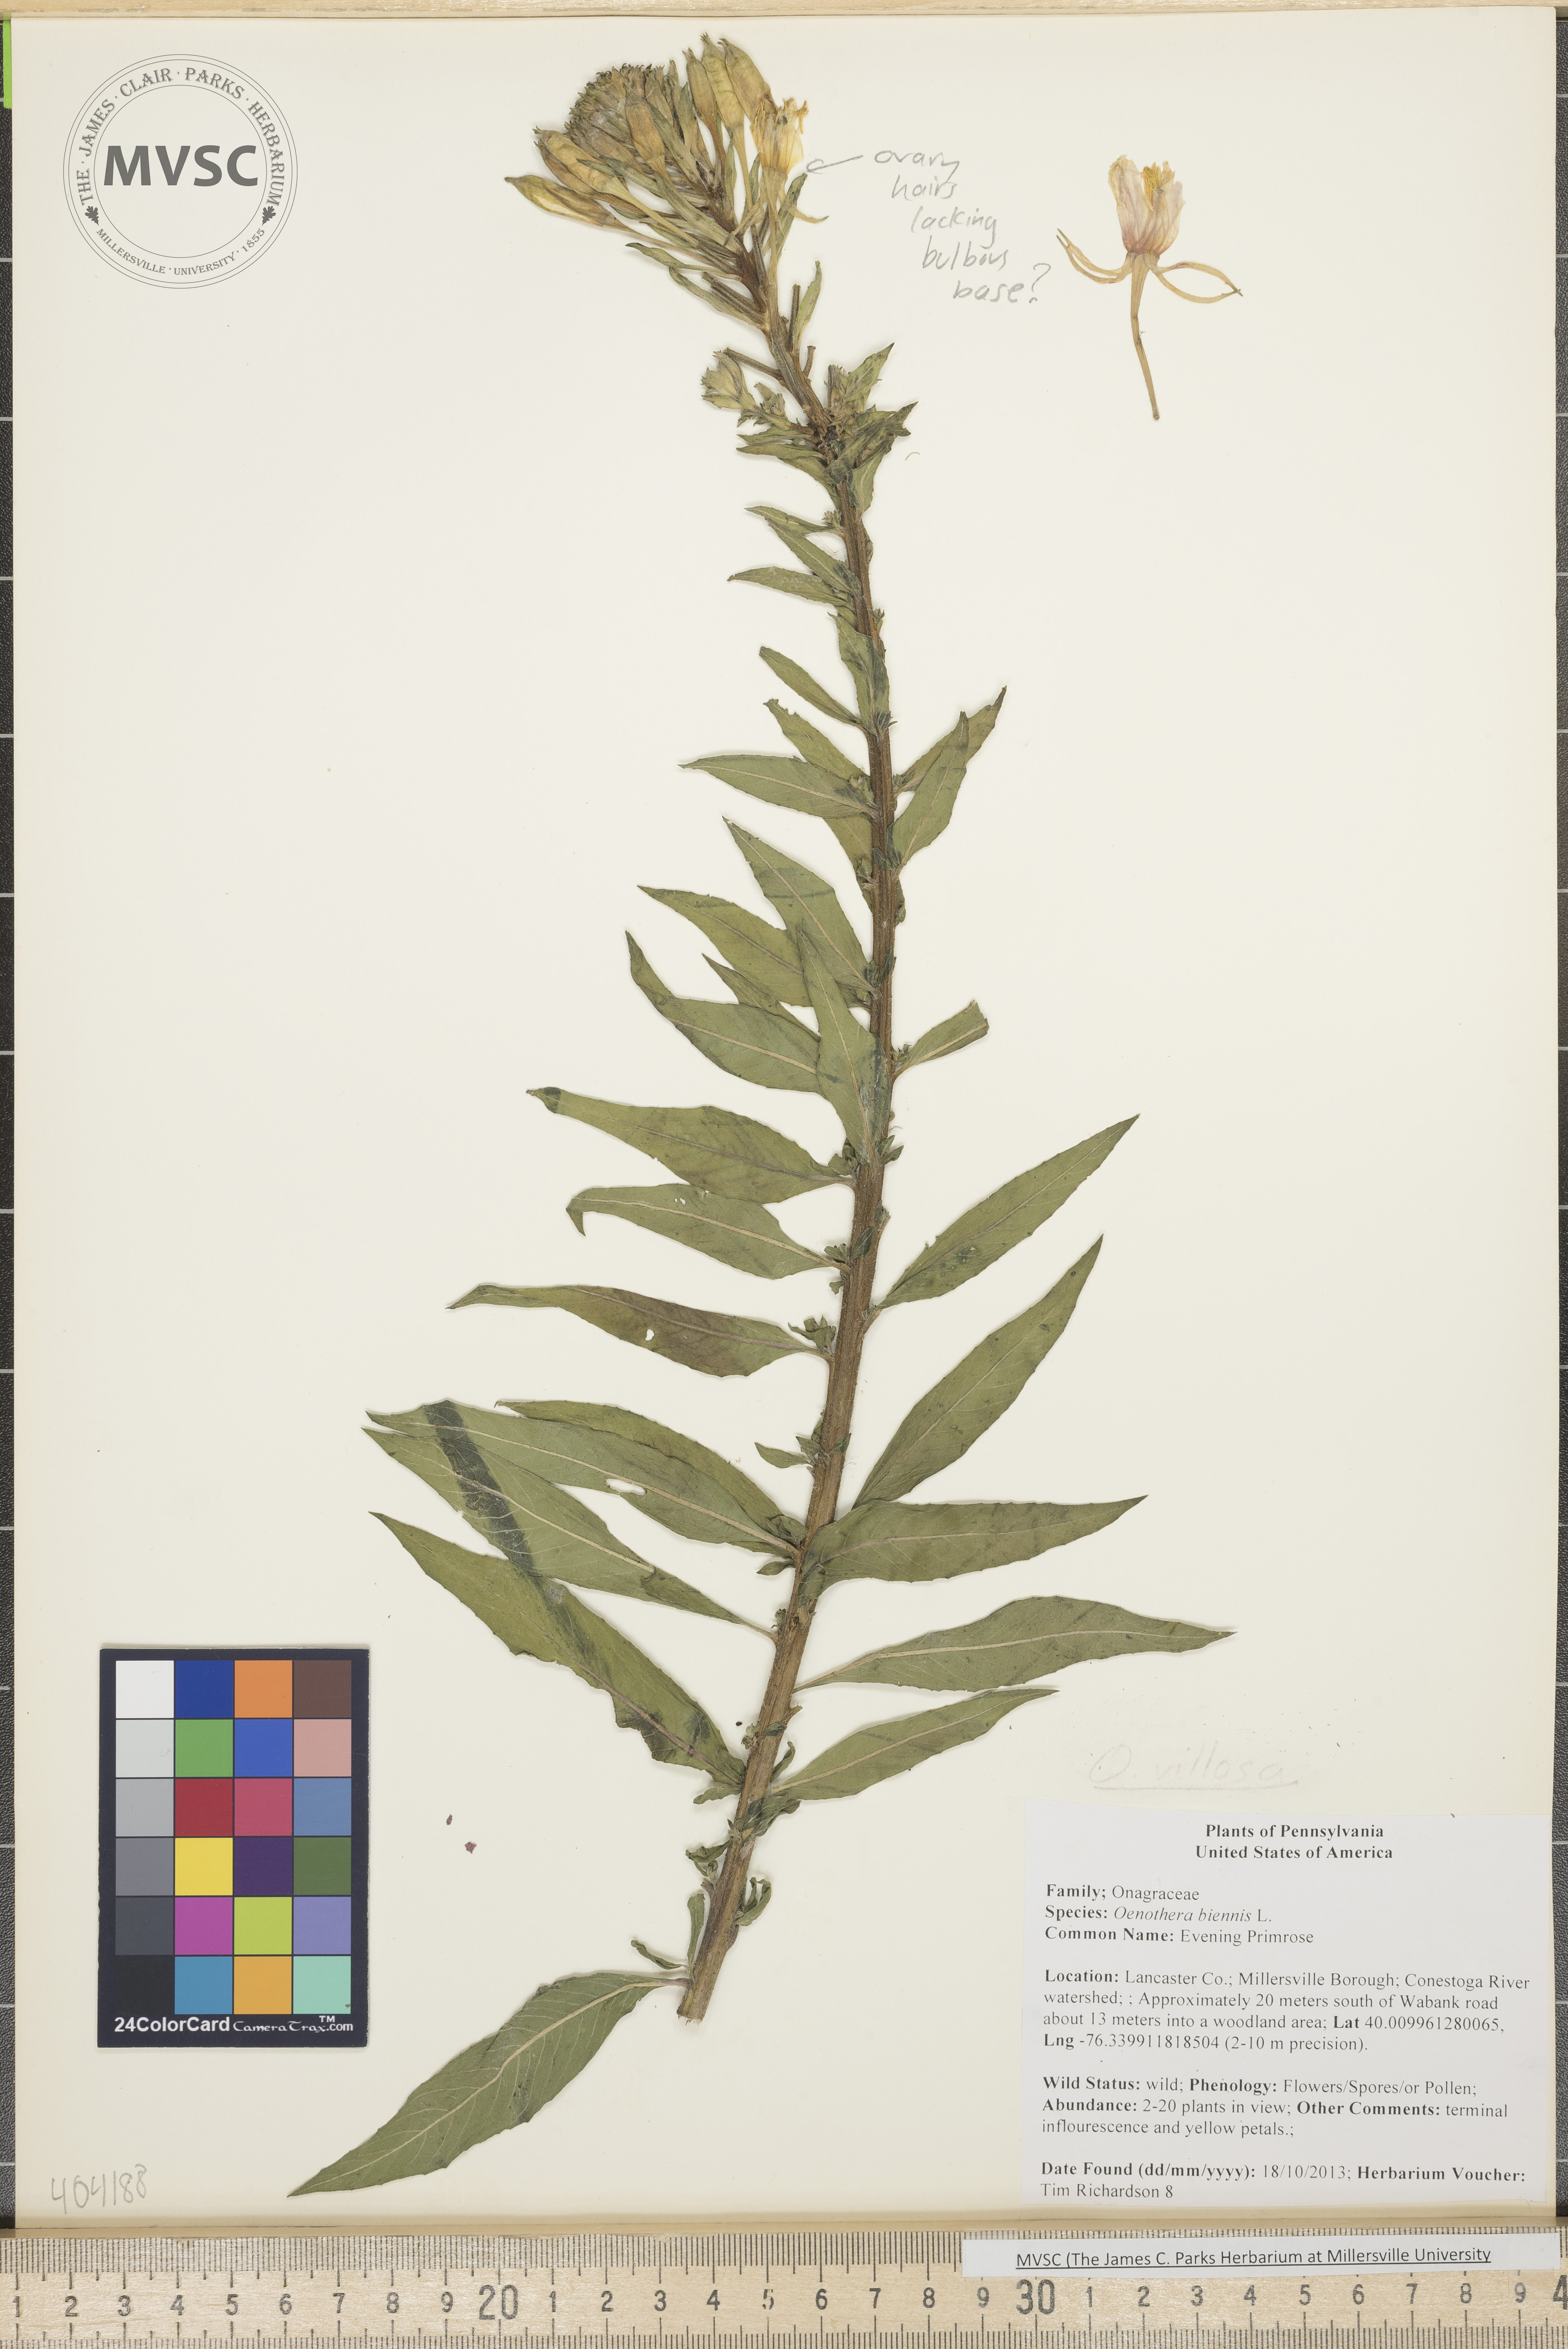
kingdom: Plantae
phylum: Tracheophyta
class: Magnoliopsida
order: Myrtales
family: Onagraceae
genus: Oenothera
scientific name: Oenothera biennis
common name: Evening Primrose
